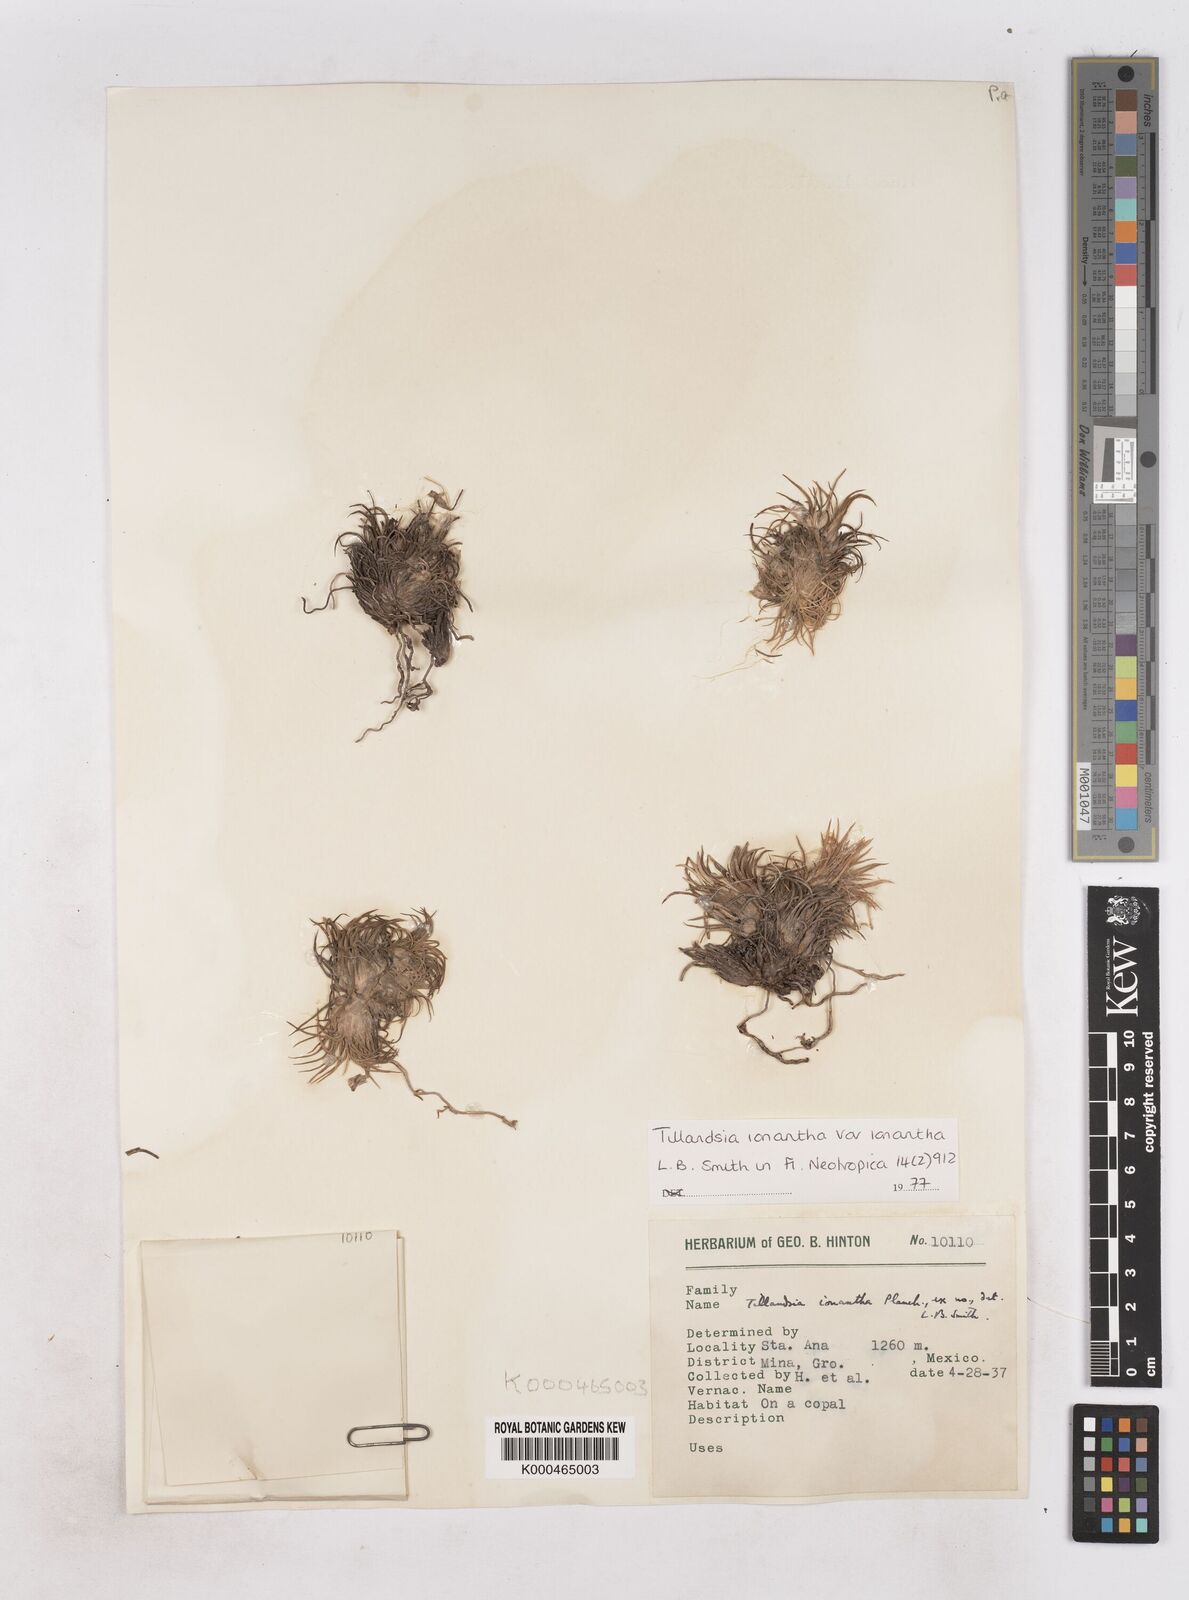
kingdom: Plantae
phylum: Tracheophyta
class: Liliopsida
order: Poales
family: Bromeliaceae
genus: Tillandsia
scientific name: Tillandsia ionantha
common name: Sky plant
